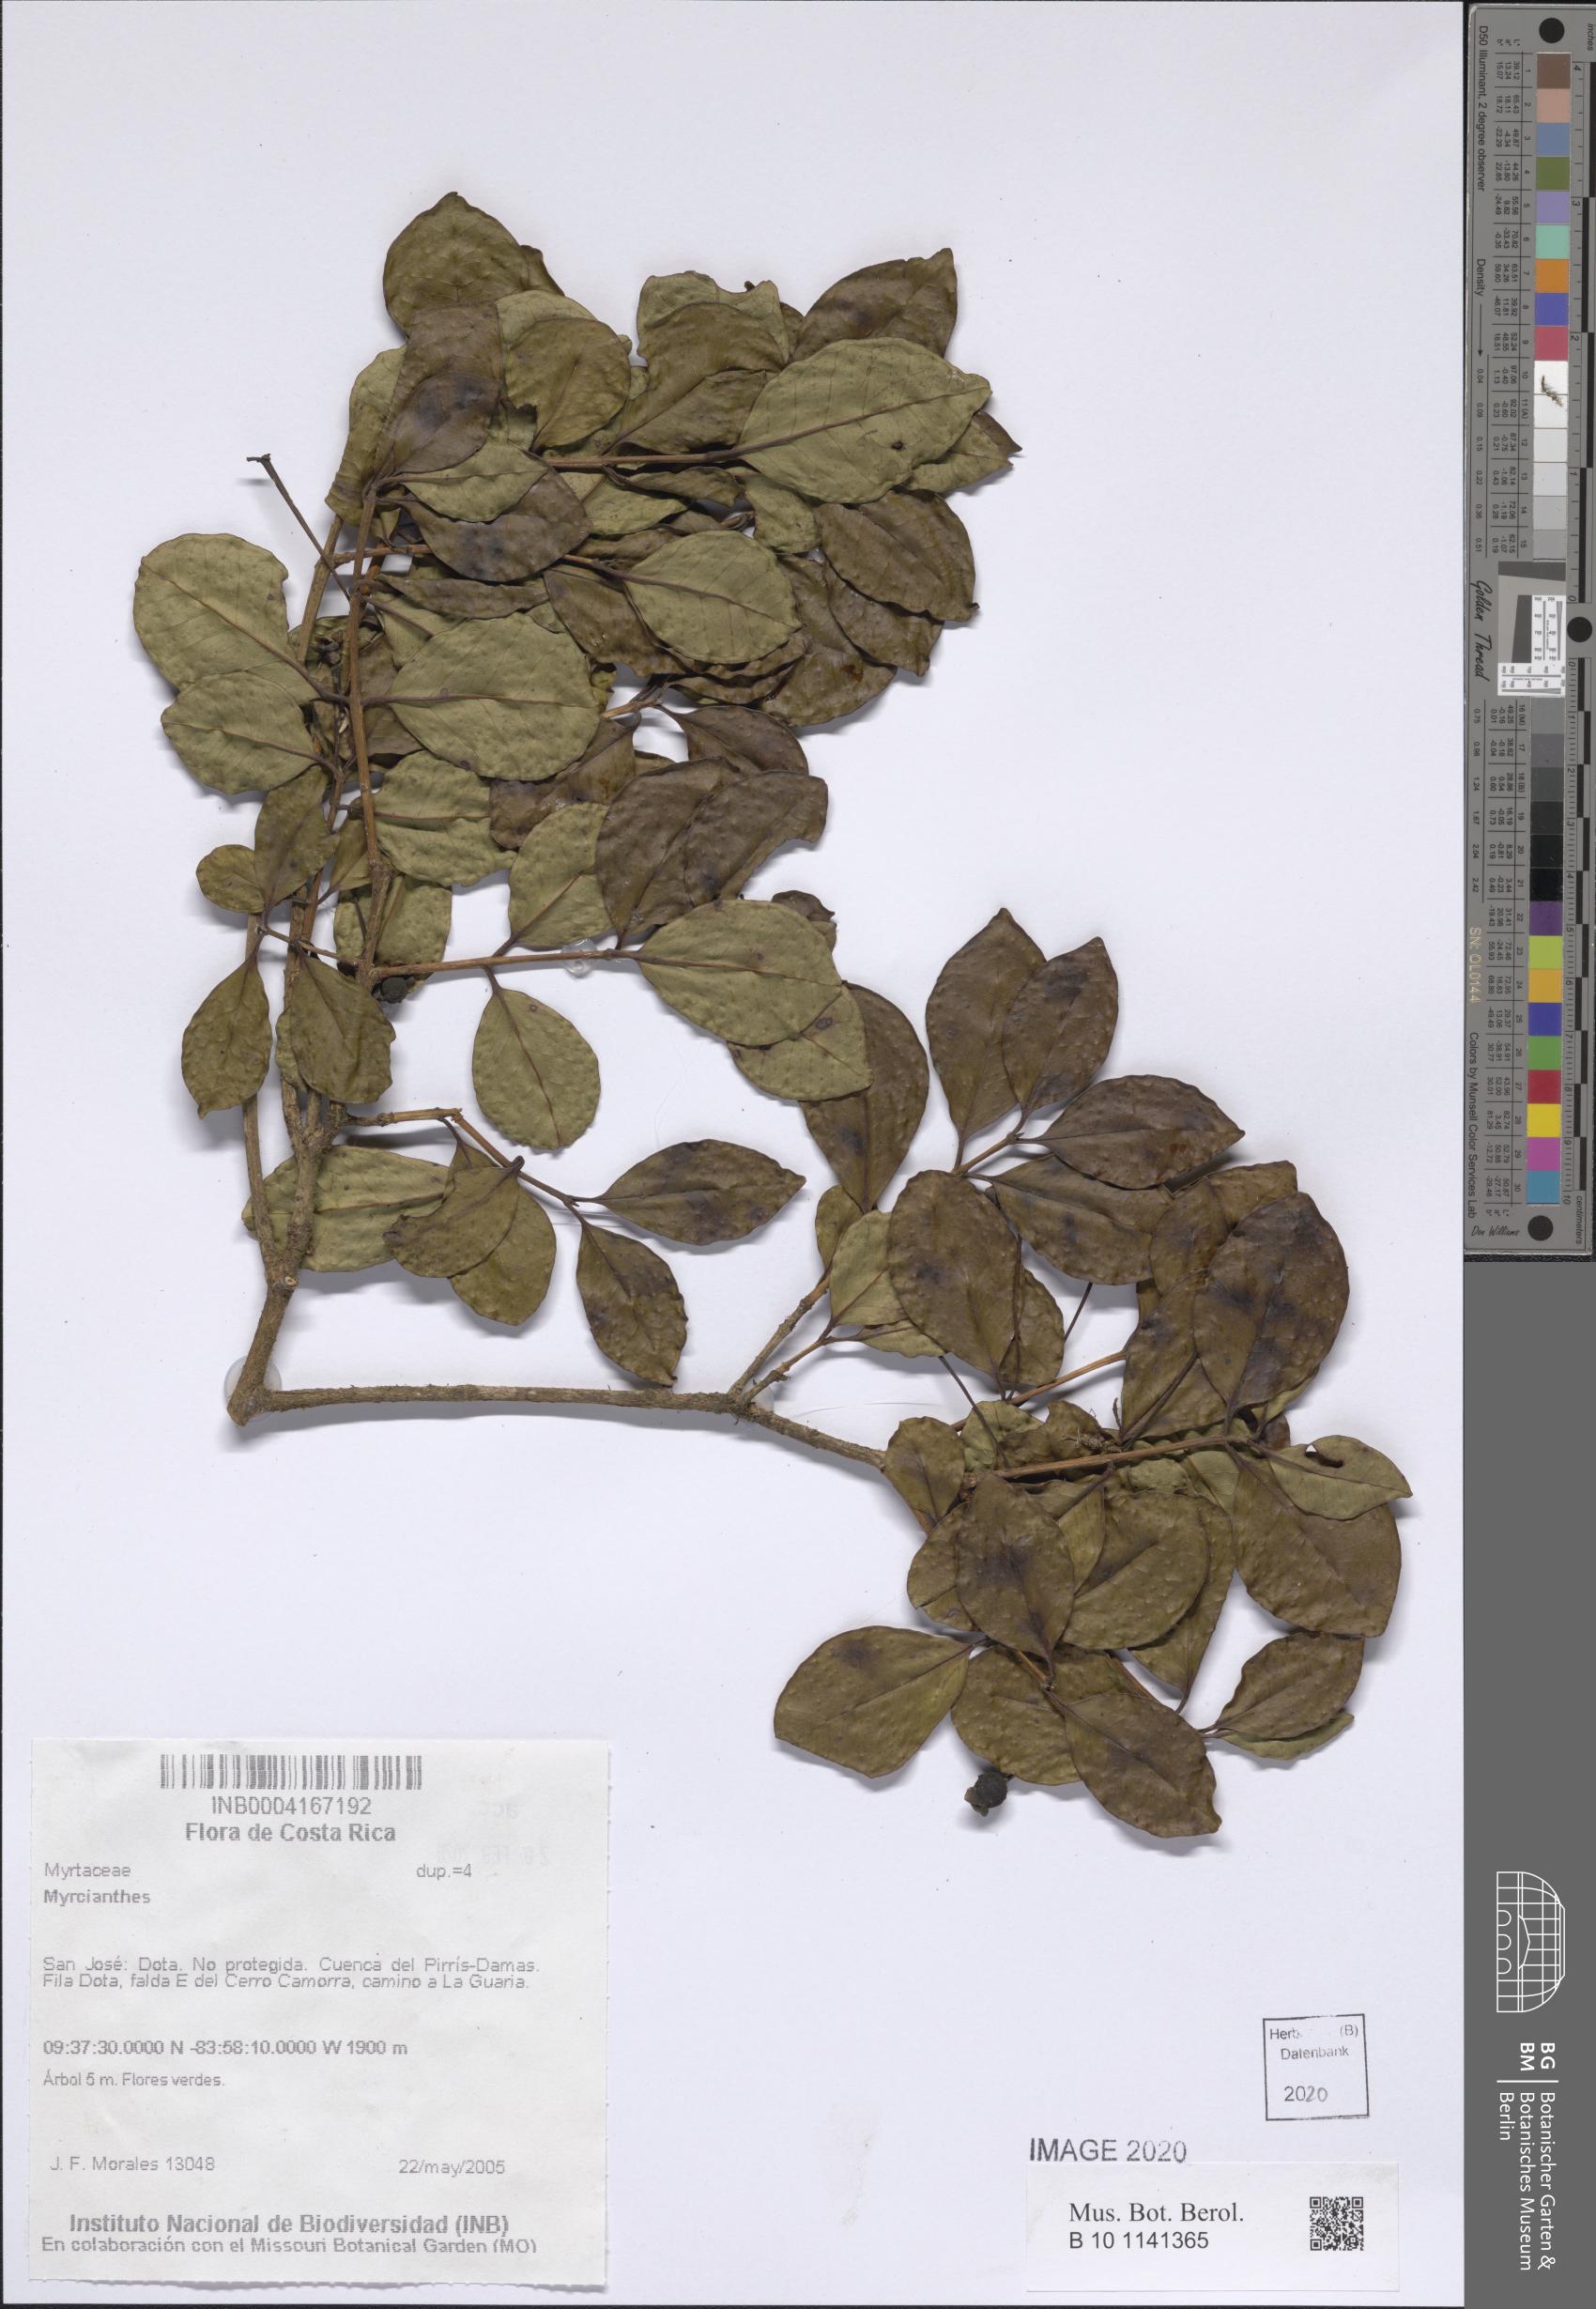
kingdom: Plantae
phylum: Tracheophyta
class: Magnoliopsida
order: Myrtales
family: Myrtaceae
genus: Myrcianthes
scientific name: Myrcianthes
